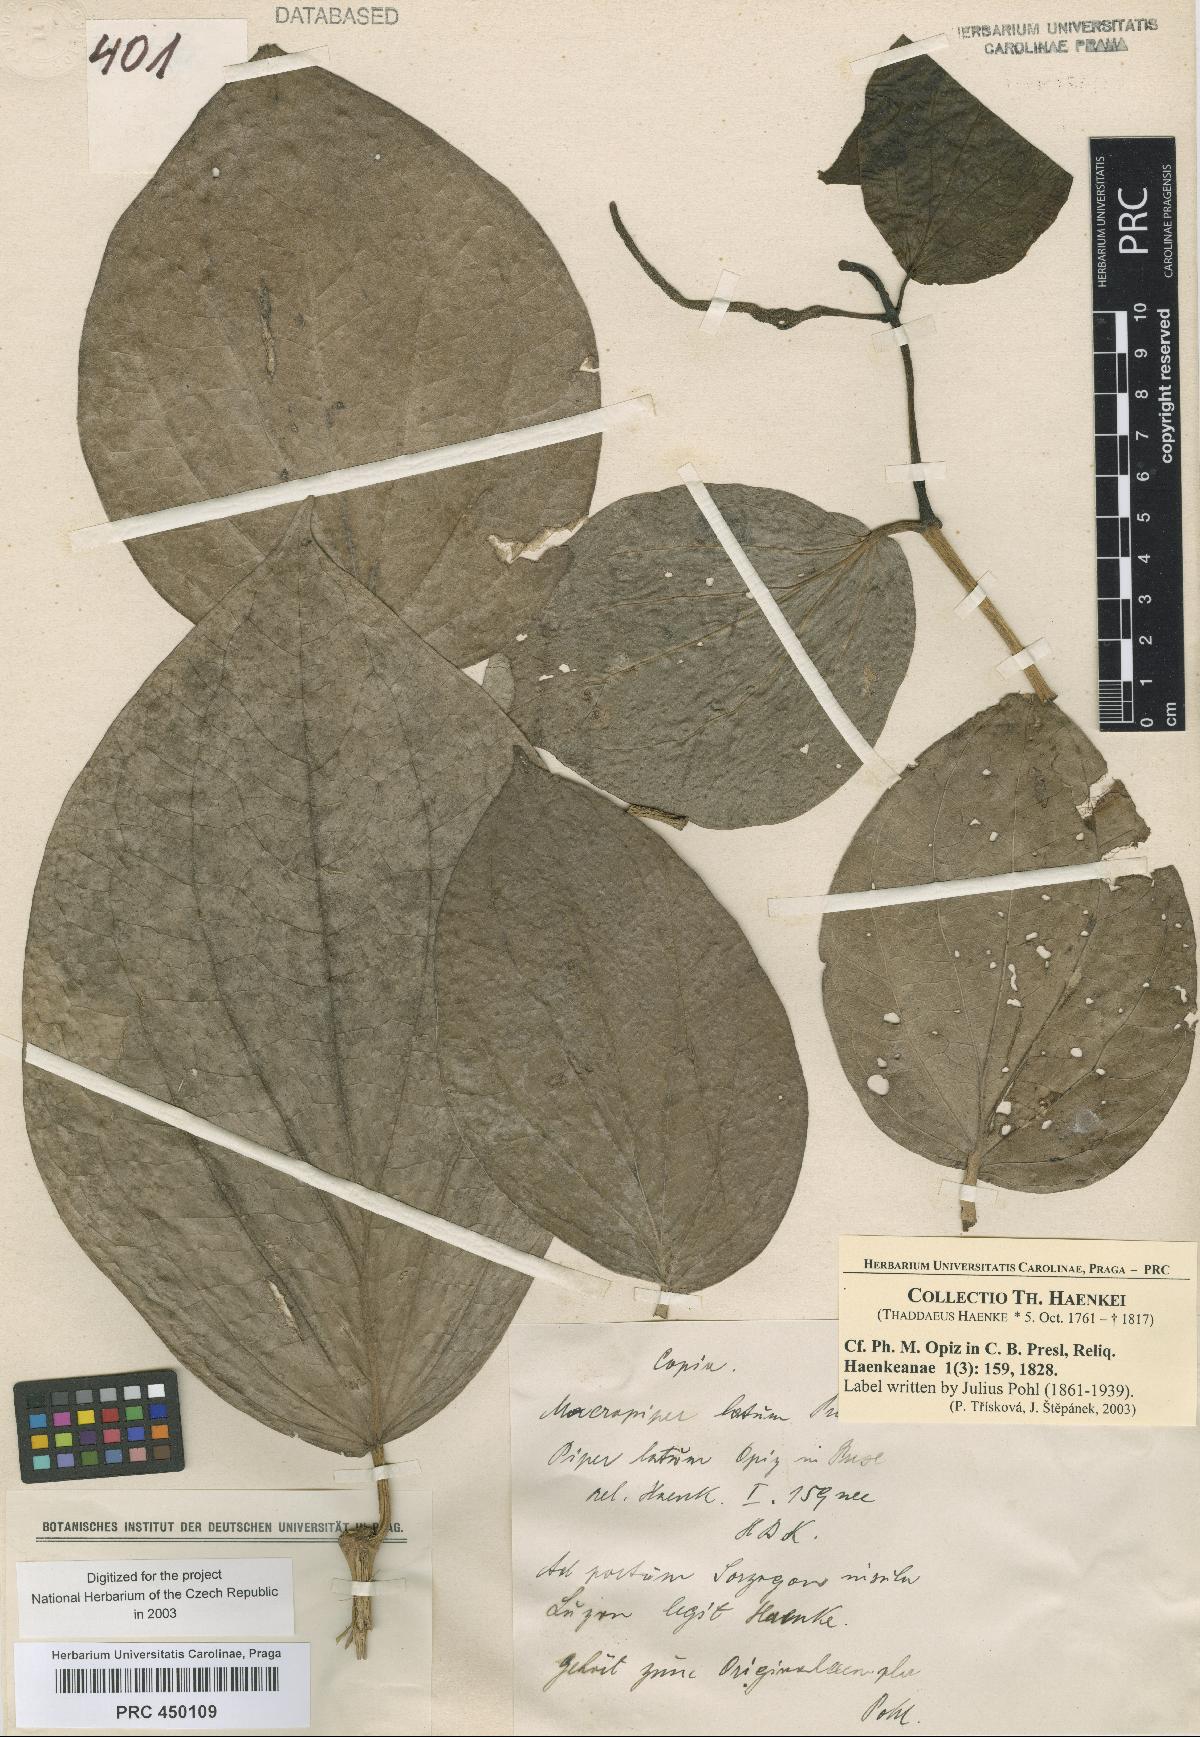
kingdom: Plantae
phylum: Tracheophyta
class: Magnoliopsida
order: Piperales
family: Piperaceae
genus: Piper
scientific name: Piper
